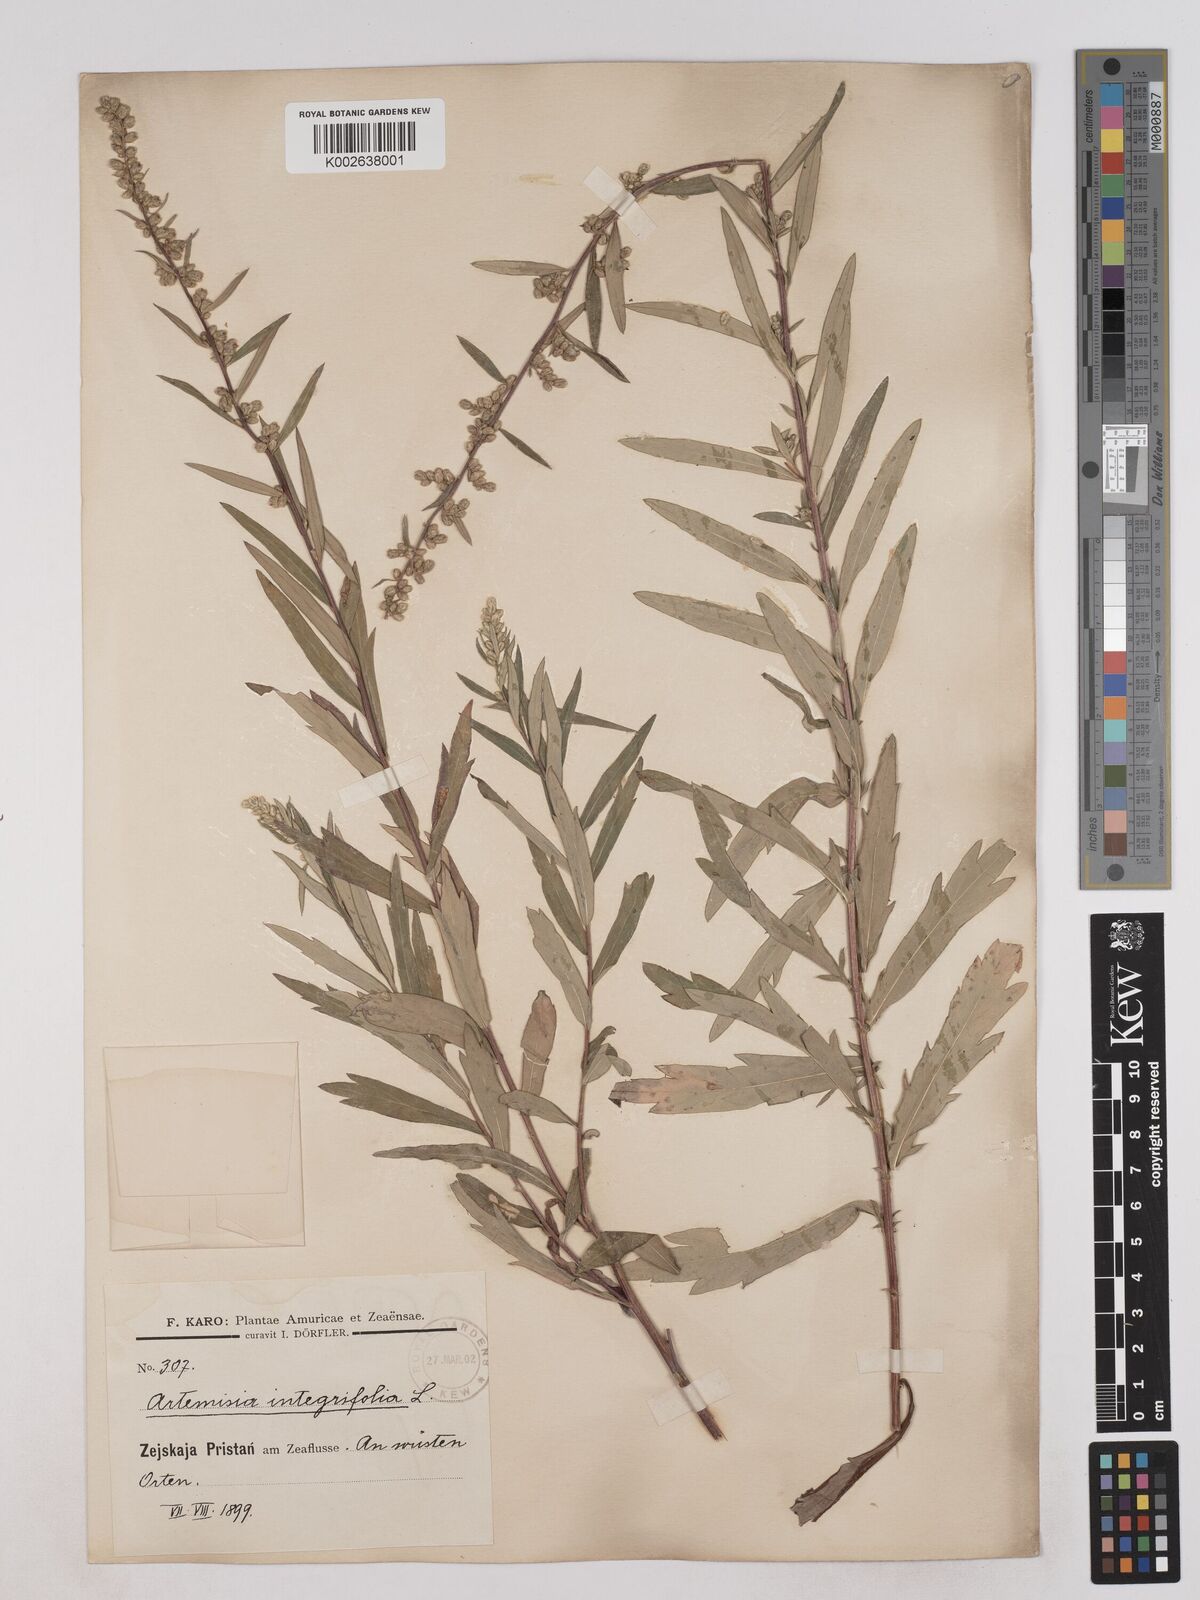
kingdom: Plantae
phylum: Tracheophyta
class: Magnoliopsida
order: Asterales
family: Asteraceae
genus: Artemisia
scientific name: Artemisia integrifolia
